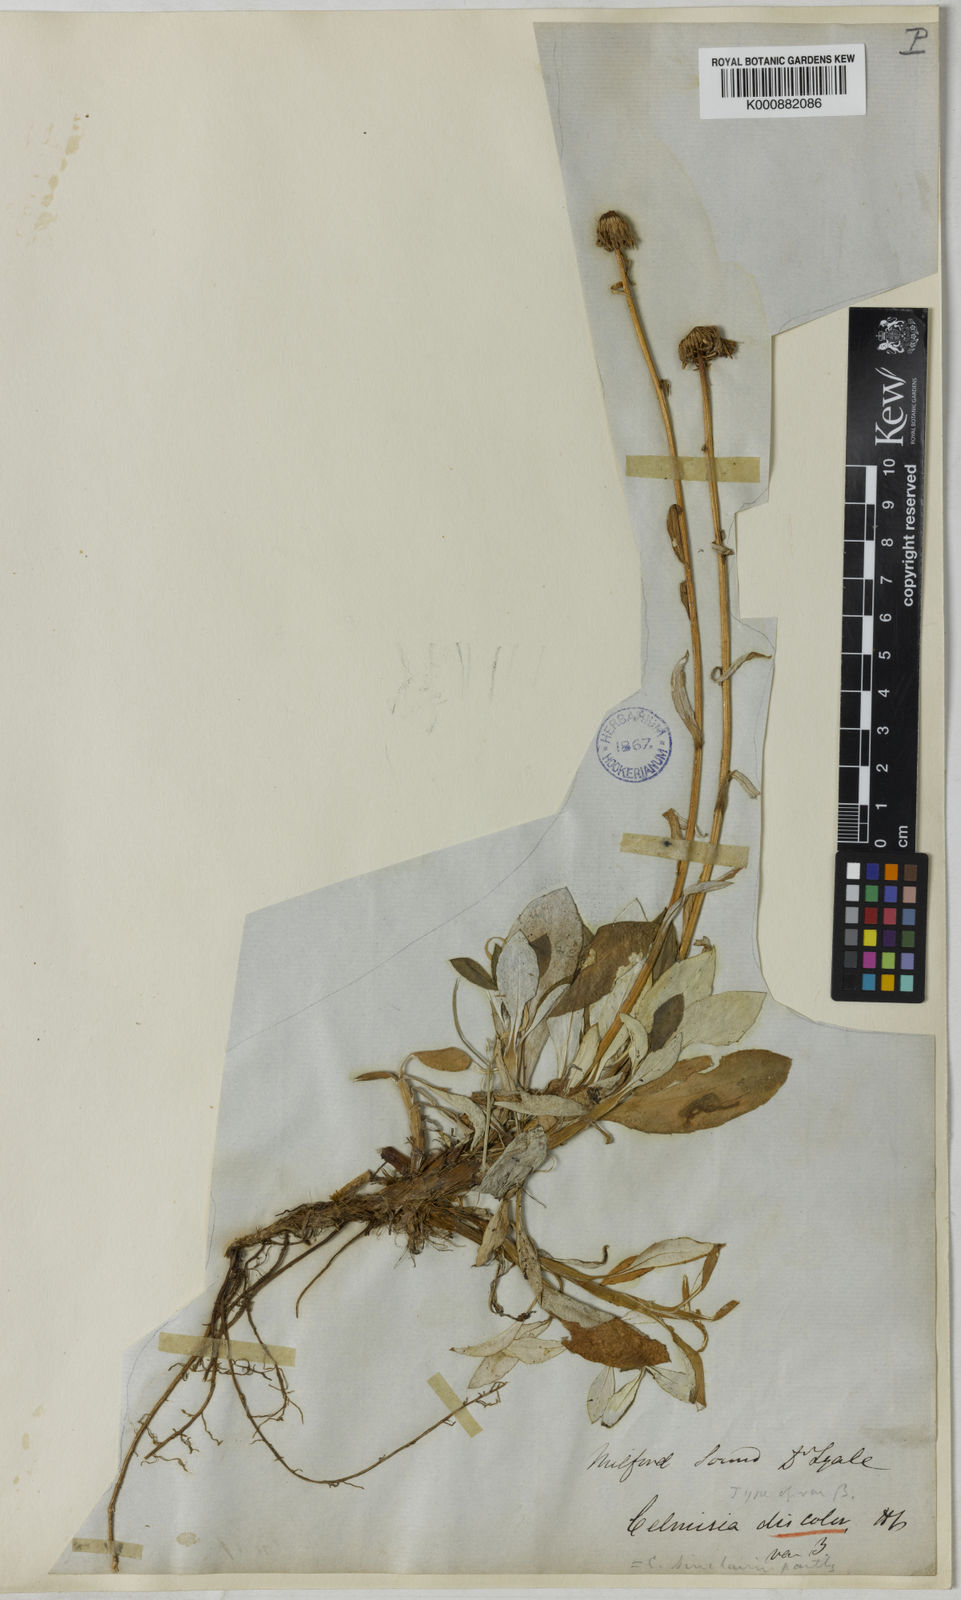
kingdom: Plantae
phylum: Tracheophyta
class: Magnoliopsida
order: Asterales
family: Asteraceae
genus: Celmisia
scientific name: Celmisia discolor
